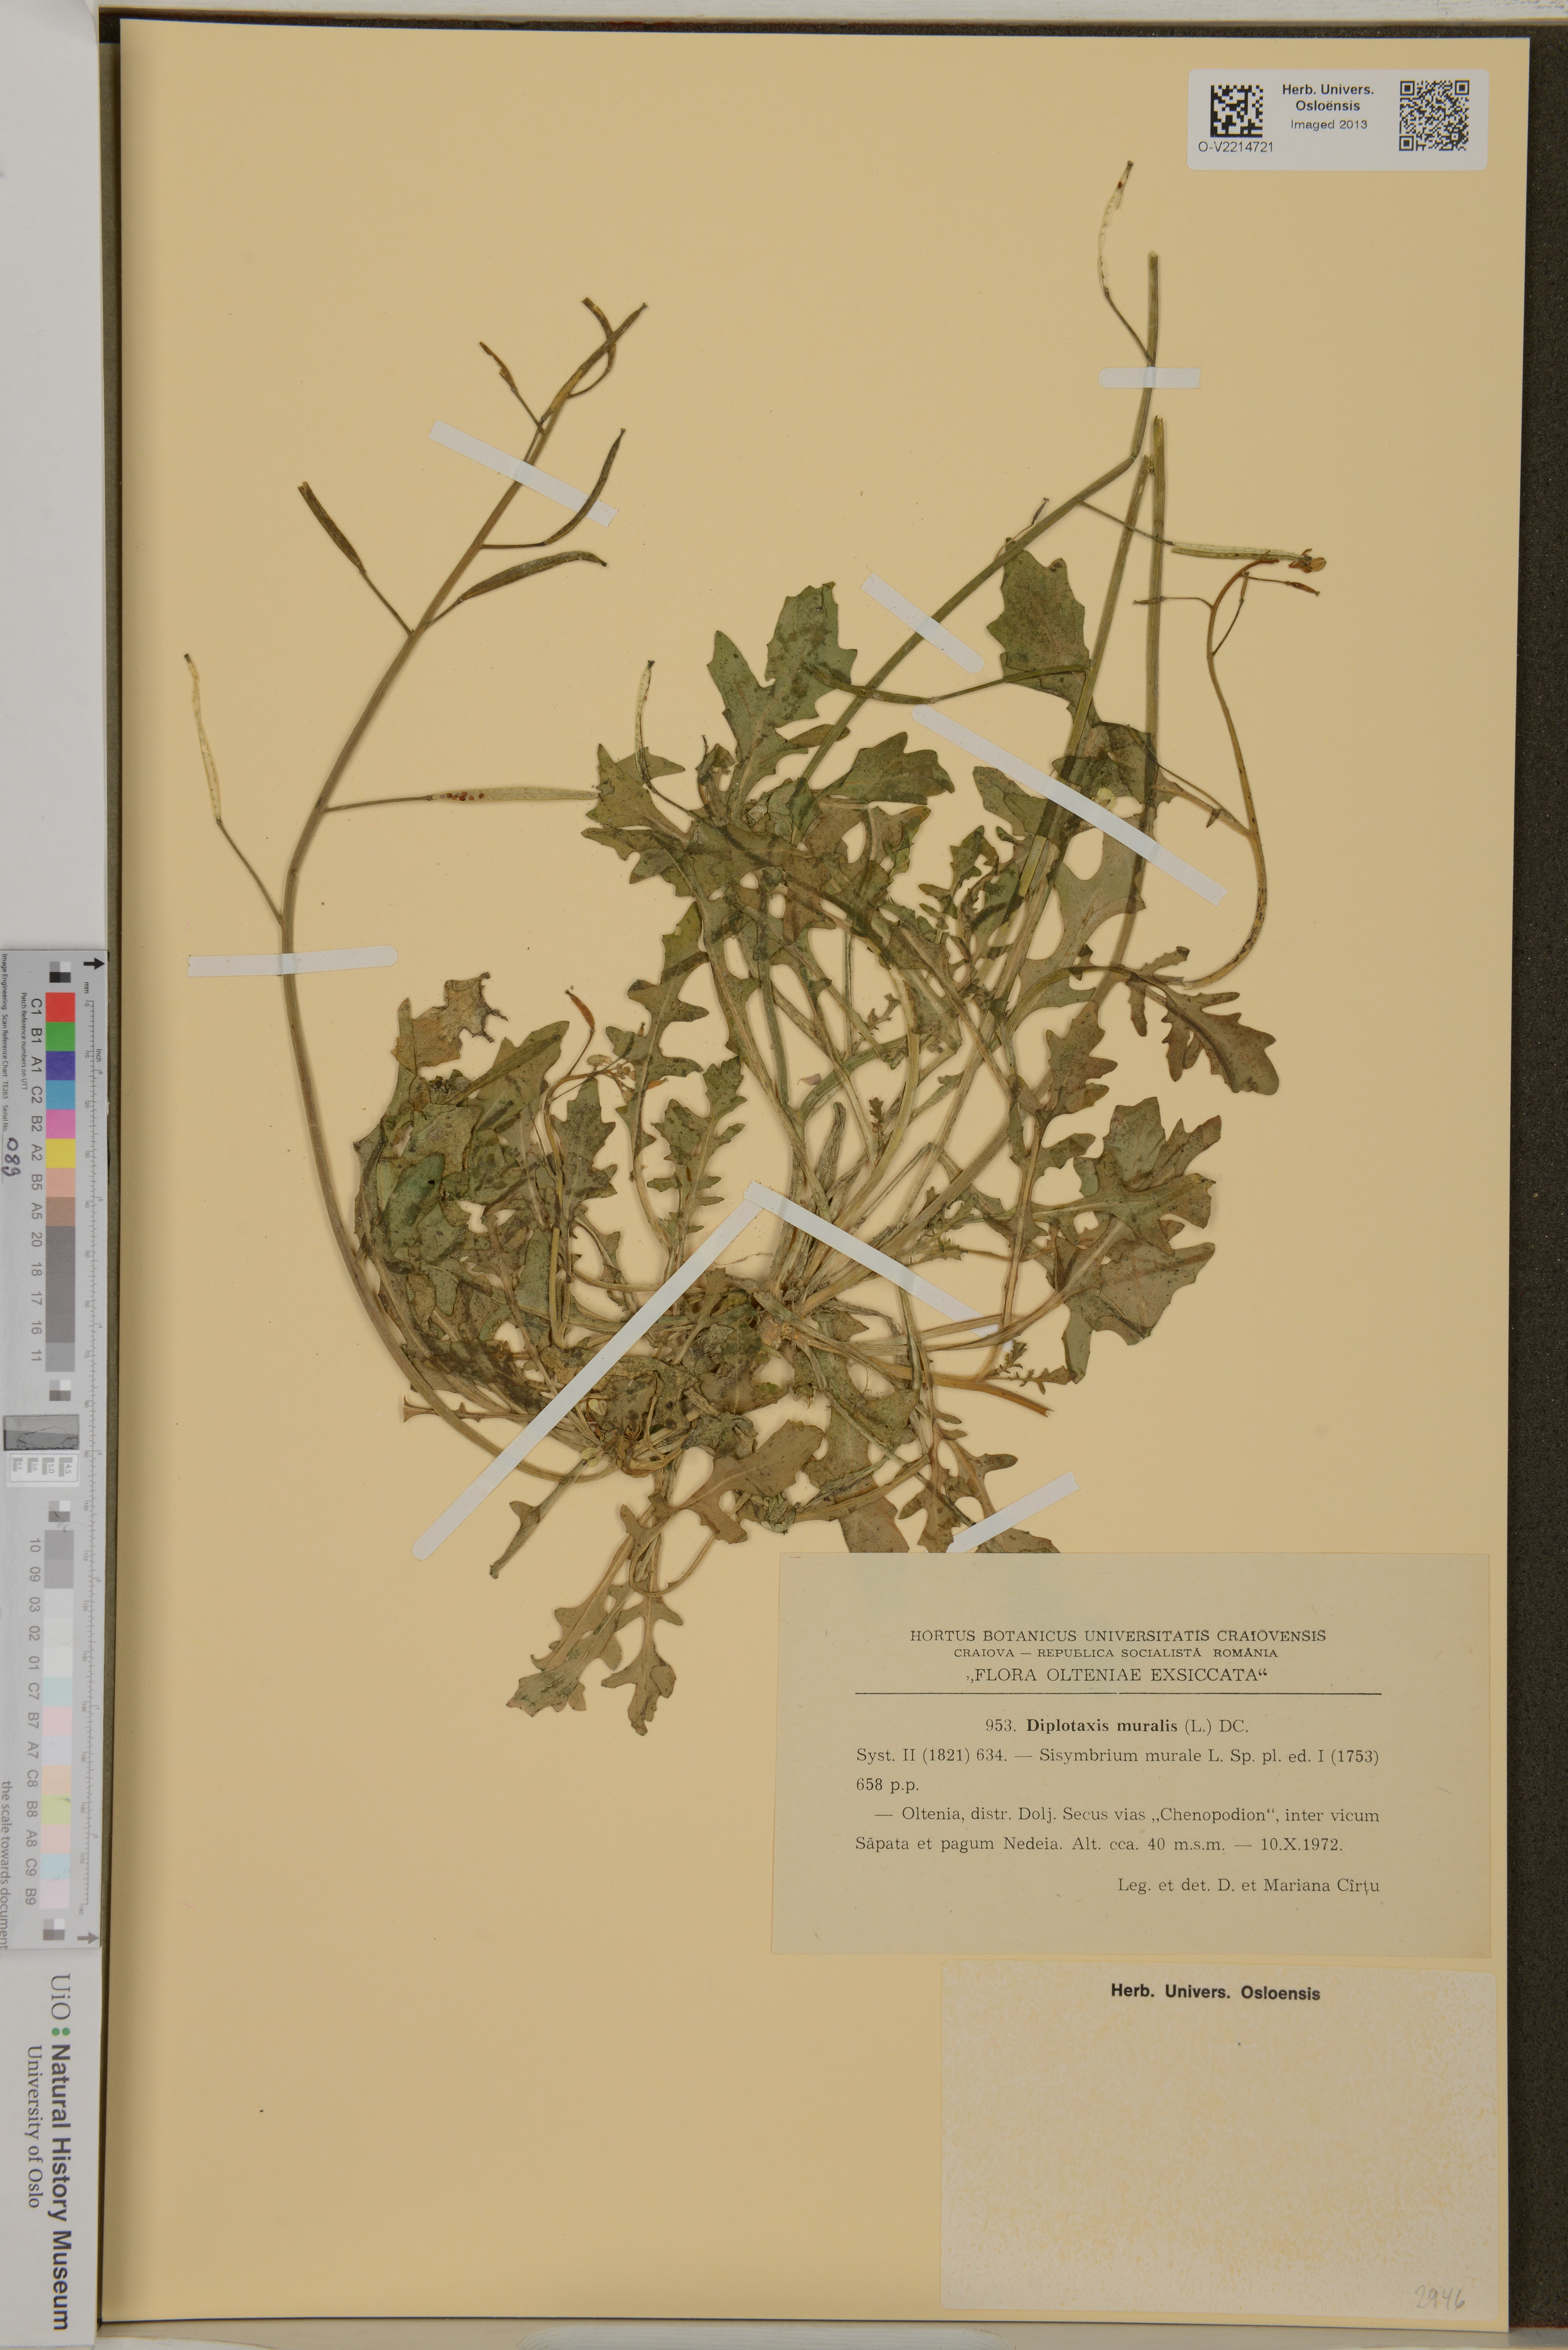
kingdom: Plantae
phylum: Tracheophyta
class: Magnoliopsida
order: Brassicales
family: Brassicaceae
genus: Diplotaxis
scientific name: Diplotaxis muralis
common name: Annual wall-rocket
